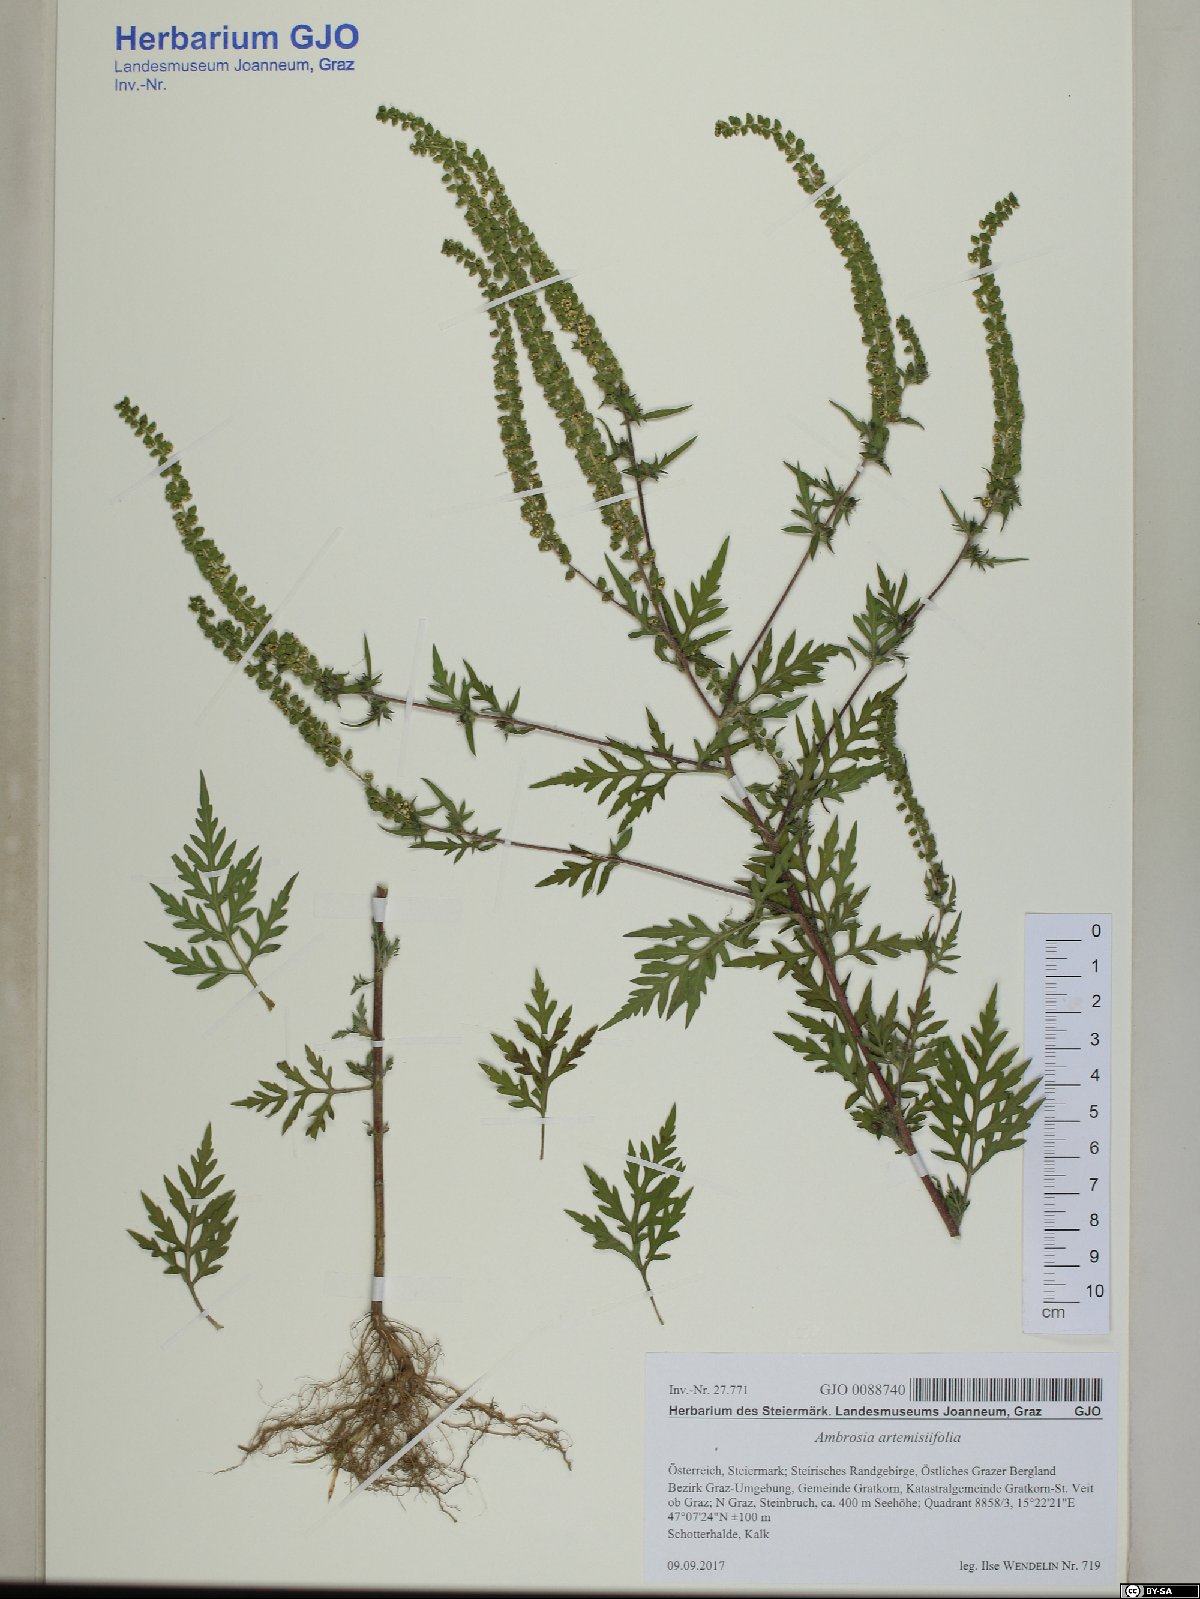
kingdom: Plantae
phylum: Tracheophyta
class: Magnoliopsida
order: Asterales
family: Asteraceae
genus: Ambrosia
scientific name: Ambrosia artemisiifolia
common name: Annual ragweed
